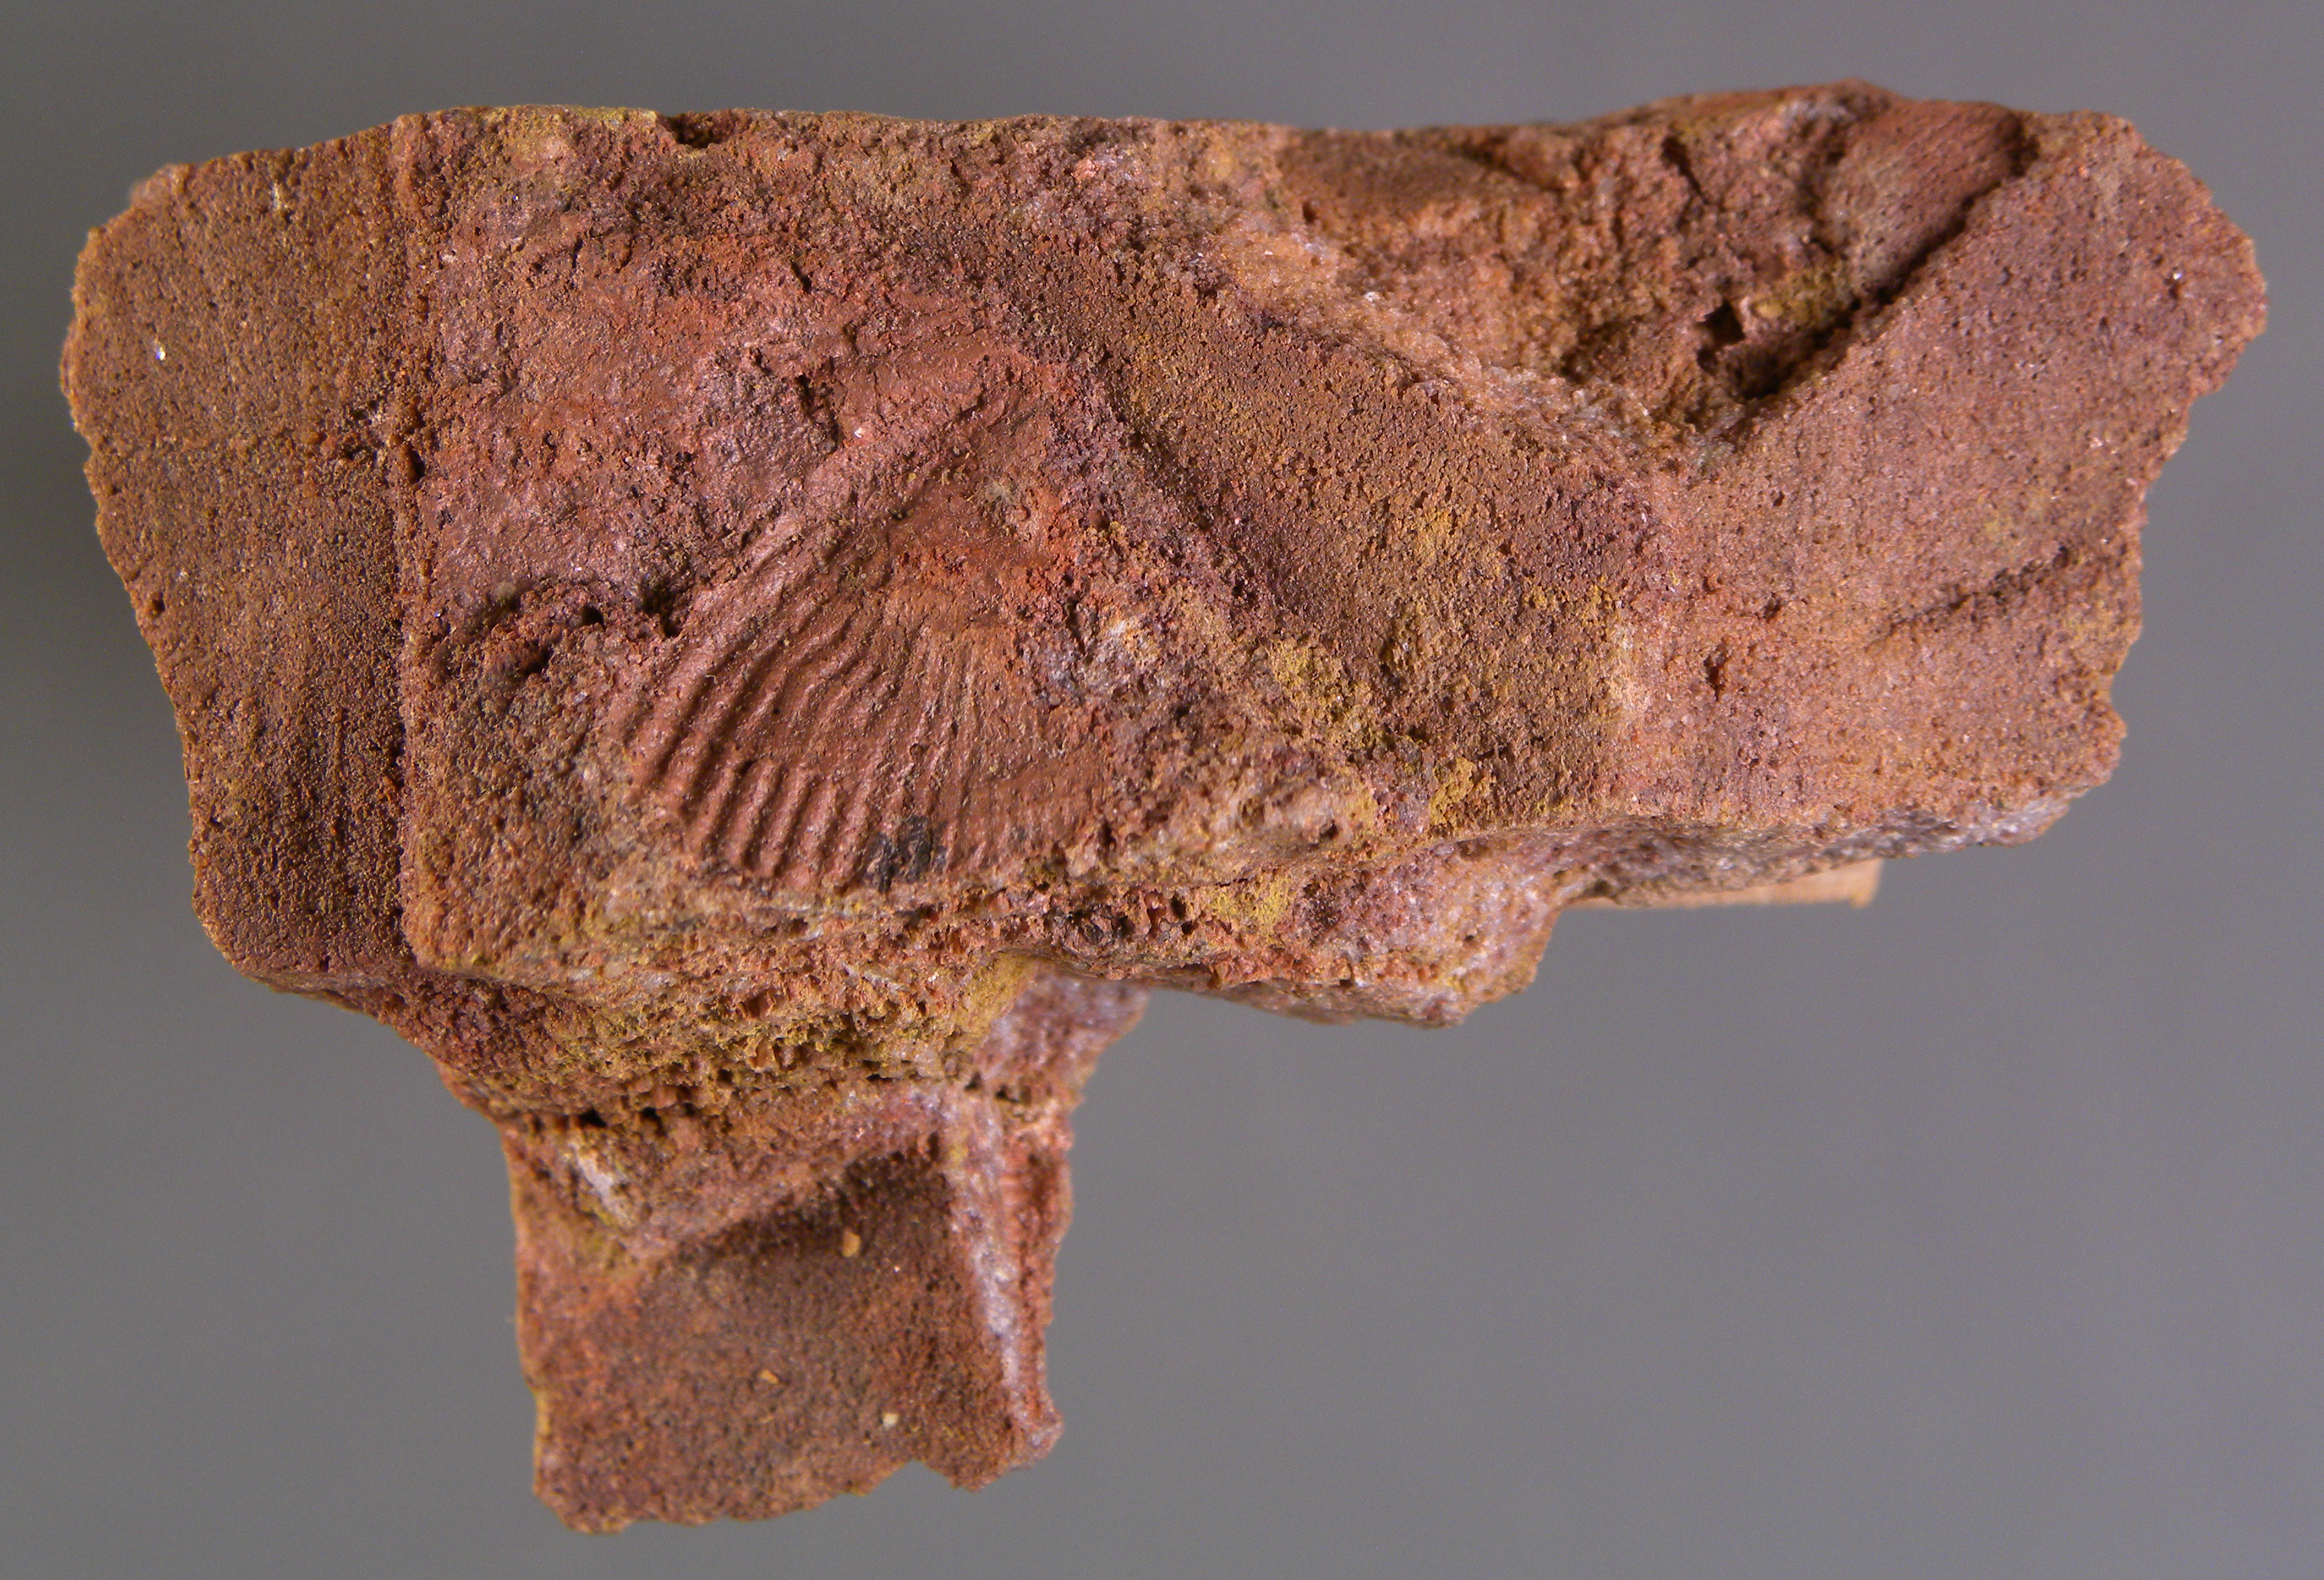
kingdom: Animalia
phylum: Brachiopoda
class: Rhynchonellata
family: Delthyrididae
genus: Brachyspirifer
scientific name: Brachyspirifer
